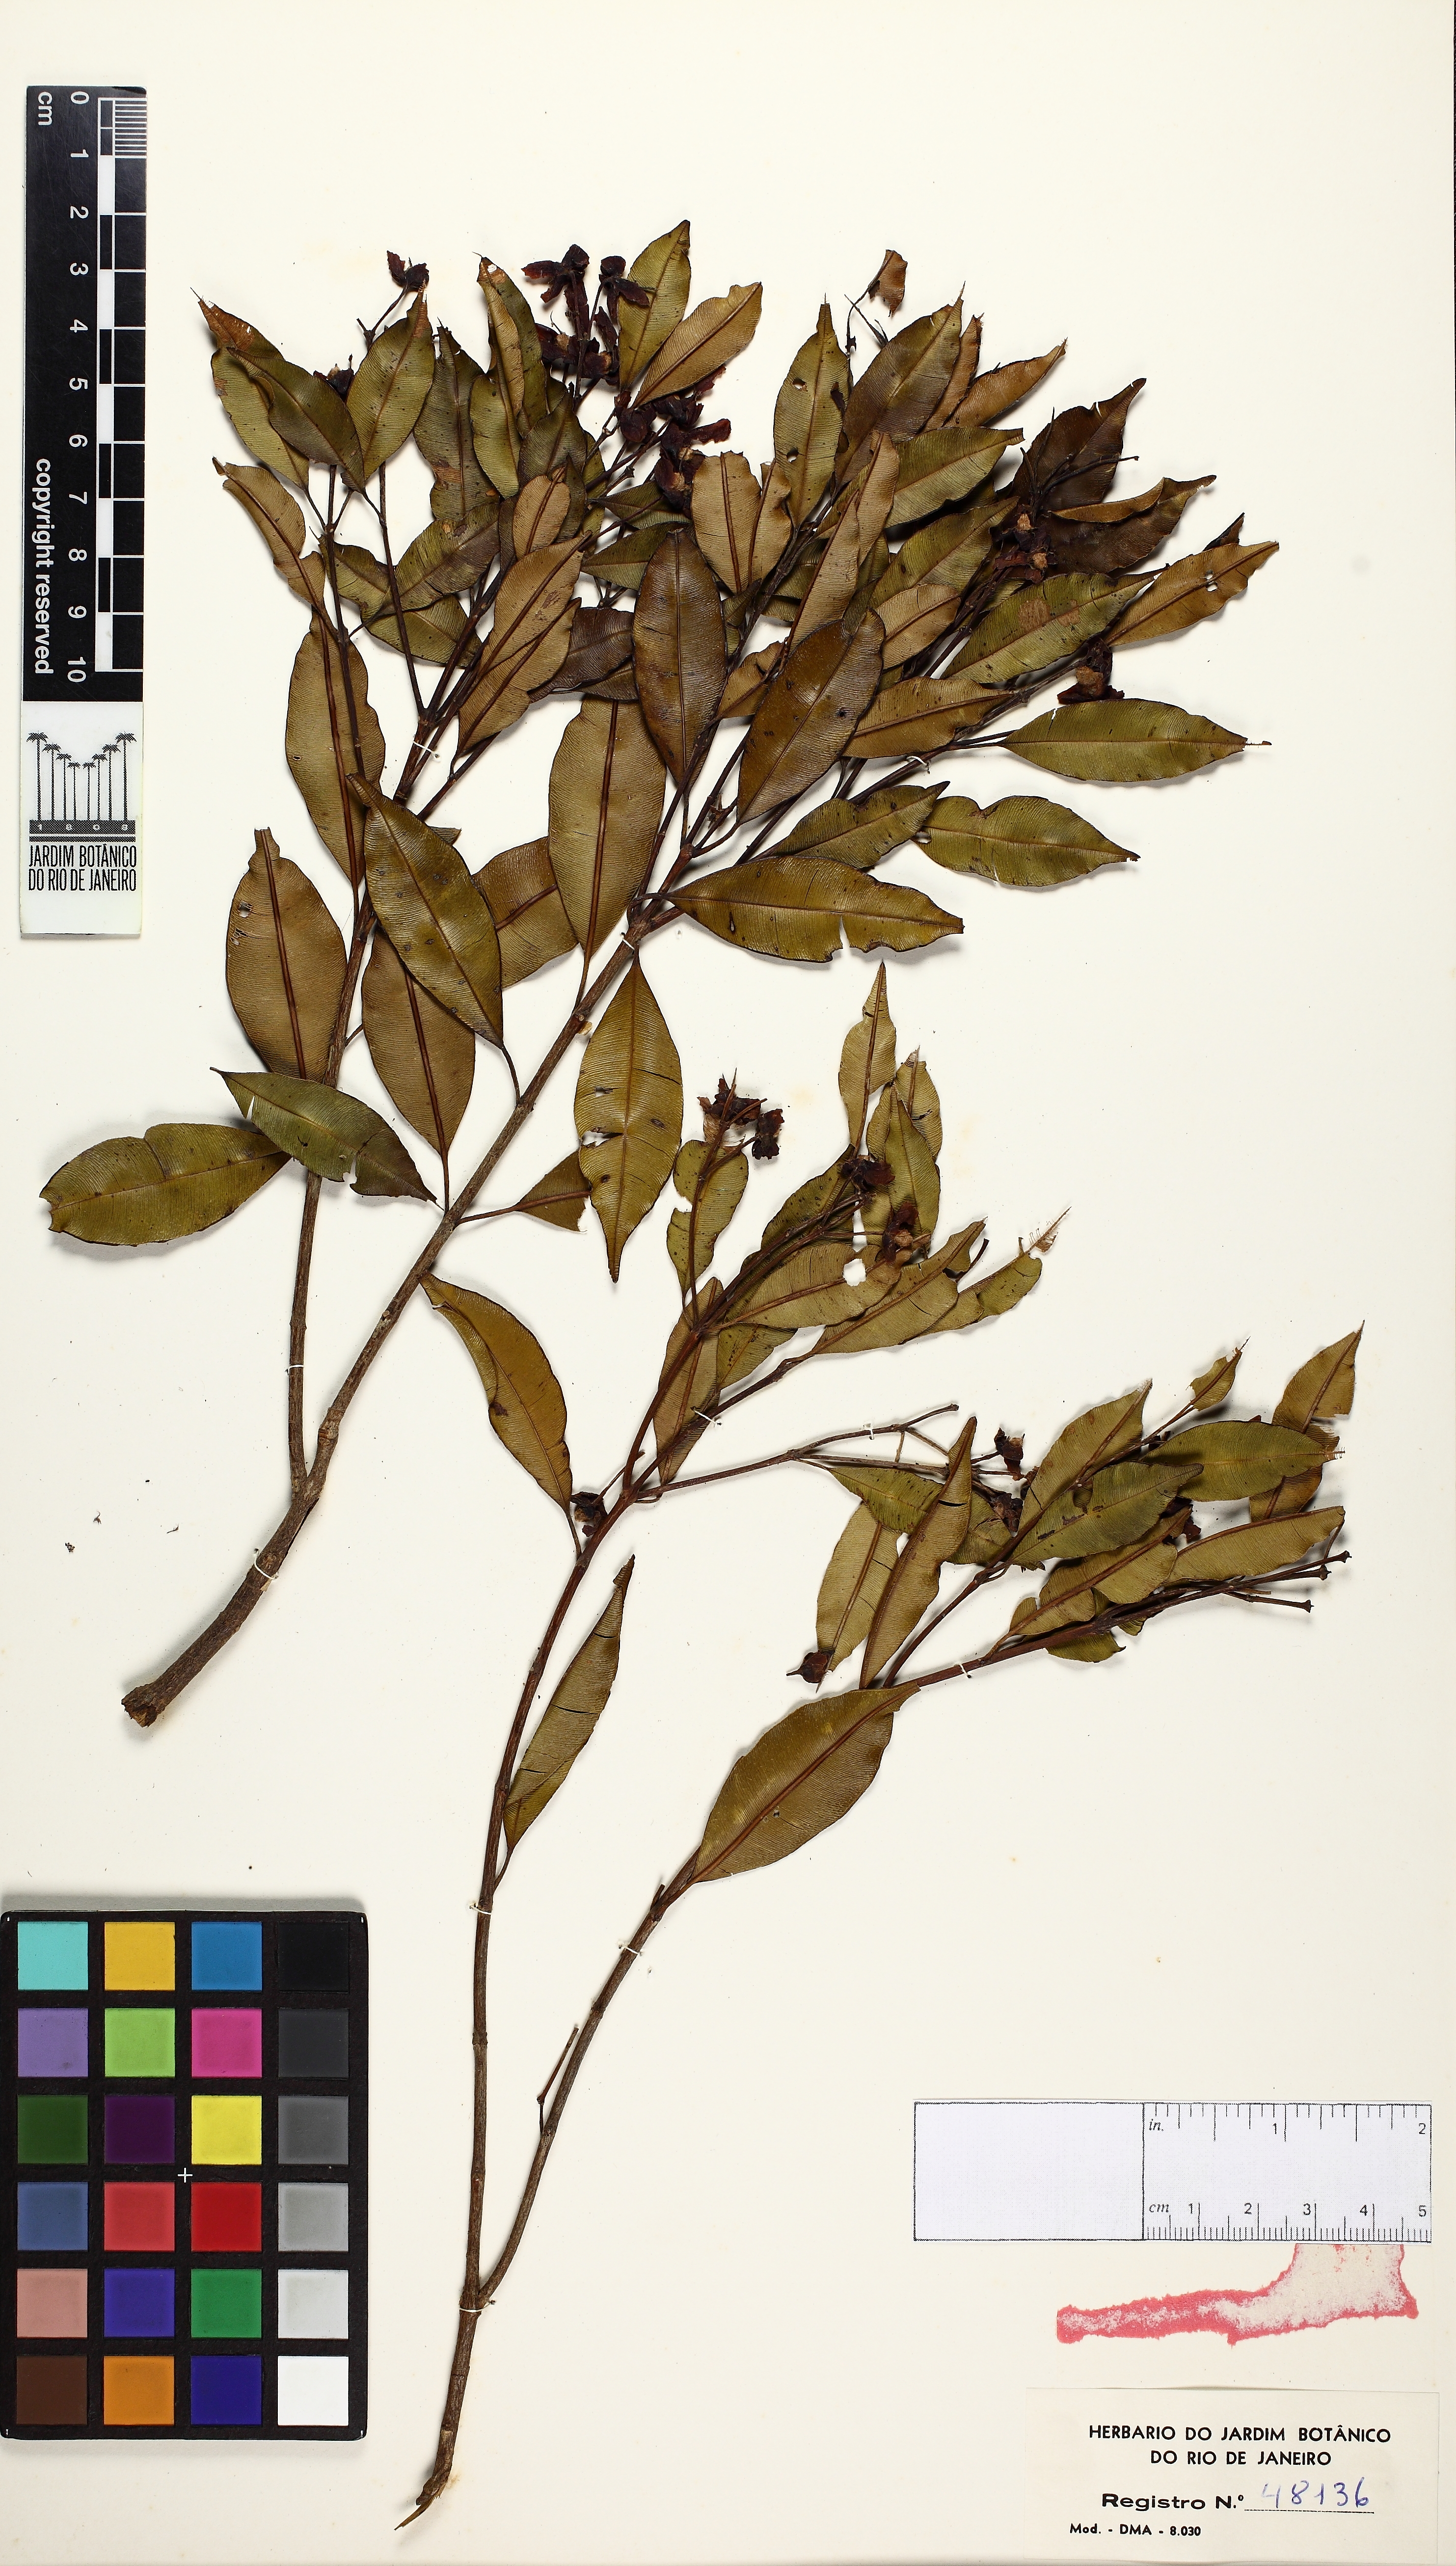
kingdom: Plantae
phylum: Tracheophyta
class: Magnoliopsida
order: Myrtales
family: Vochysiaceae
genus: Qualea
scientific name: Qualea gestasiana
